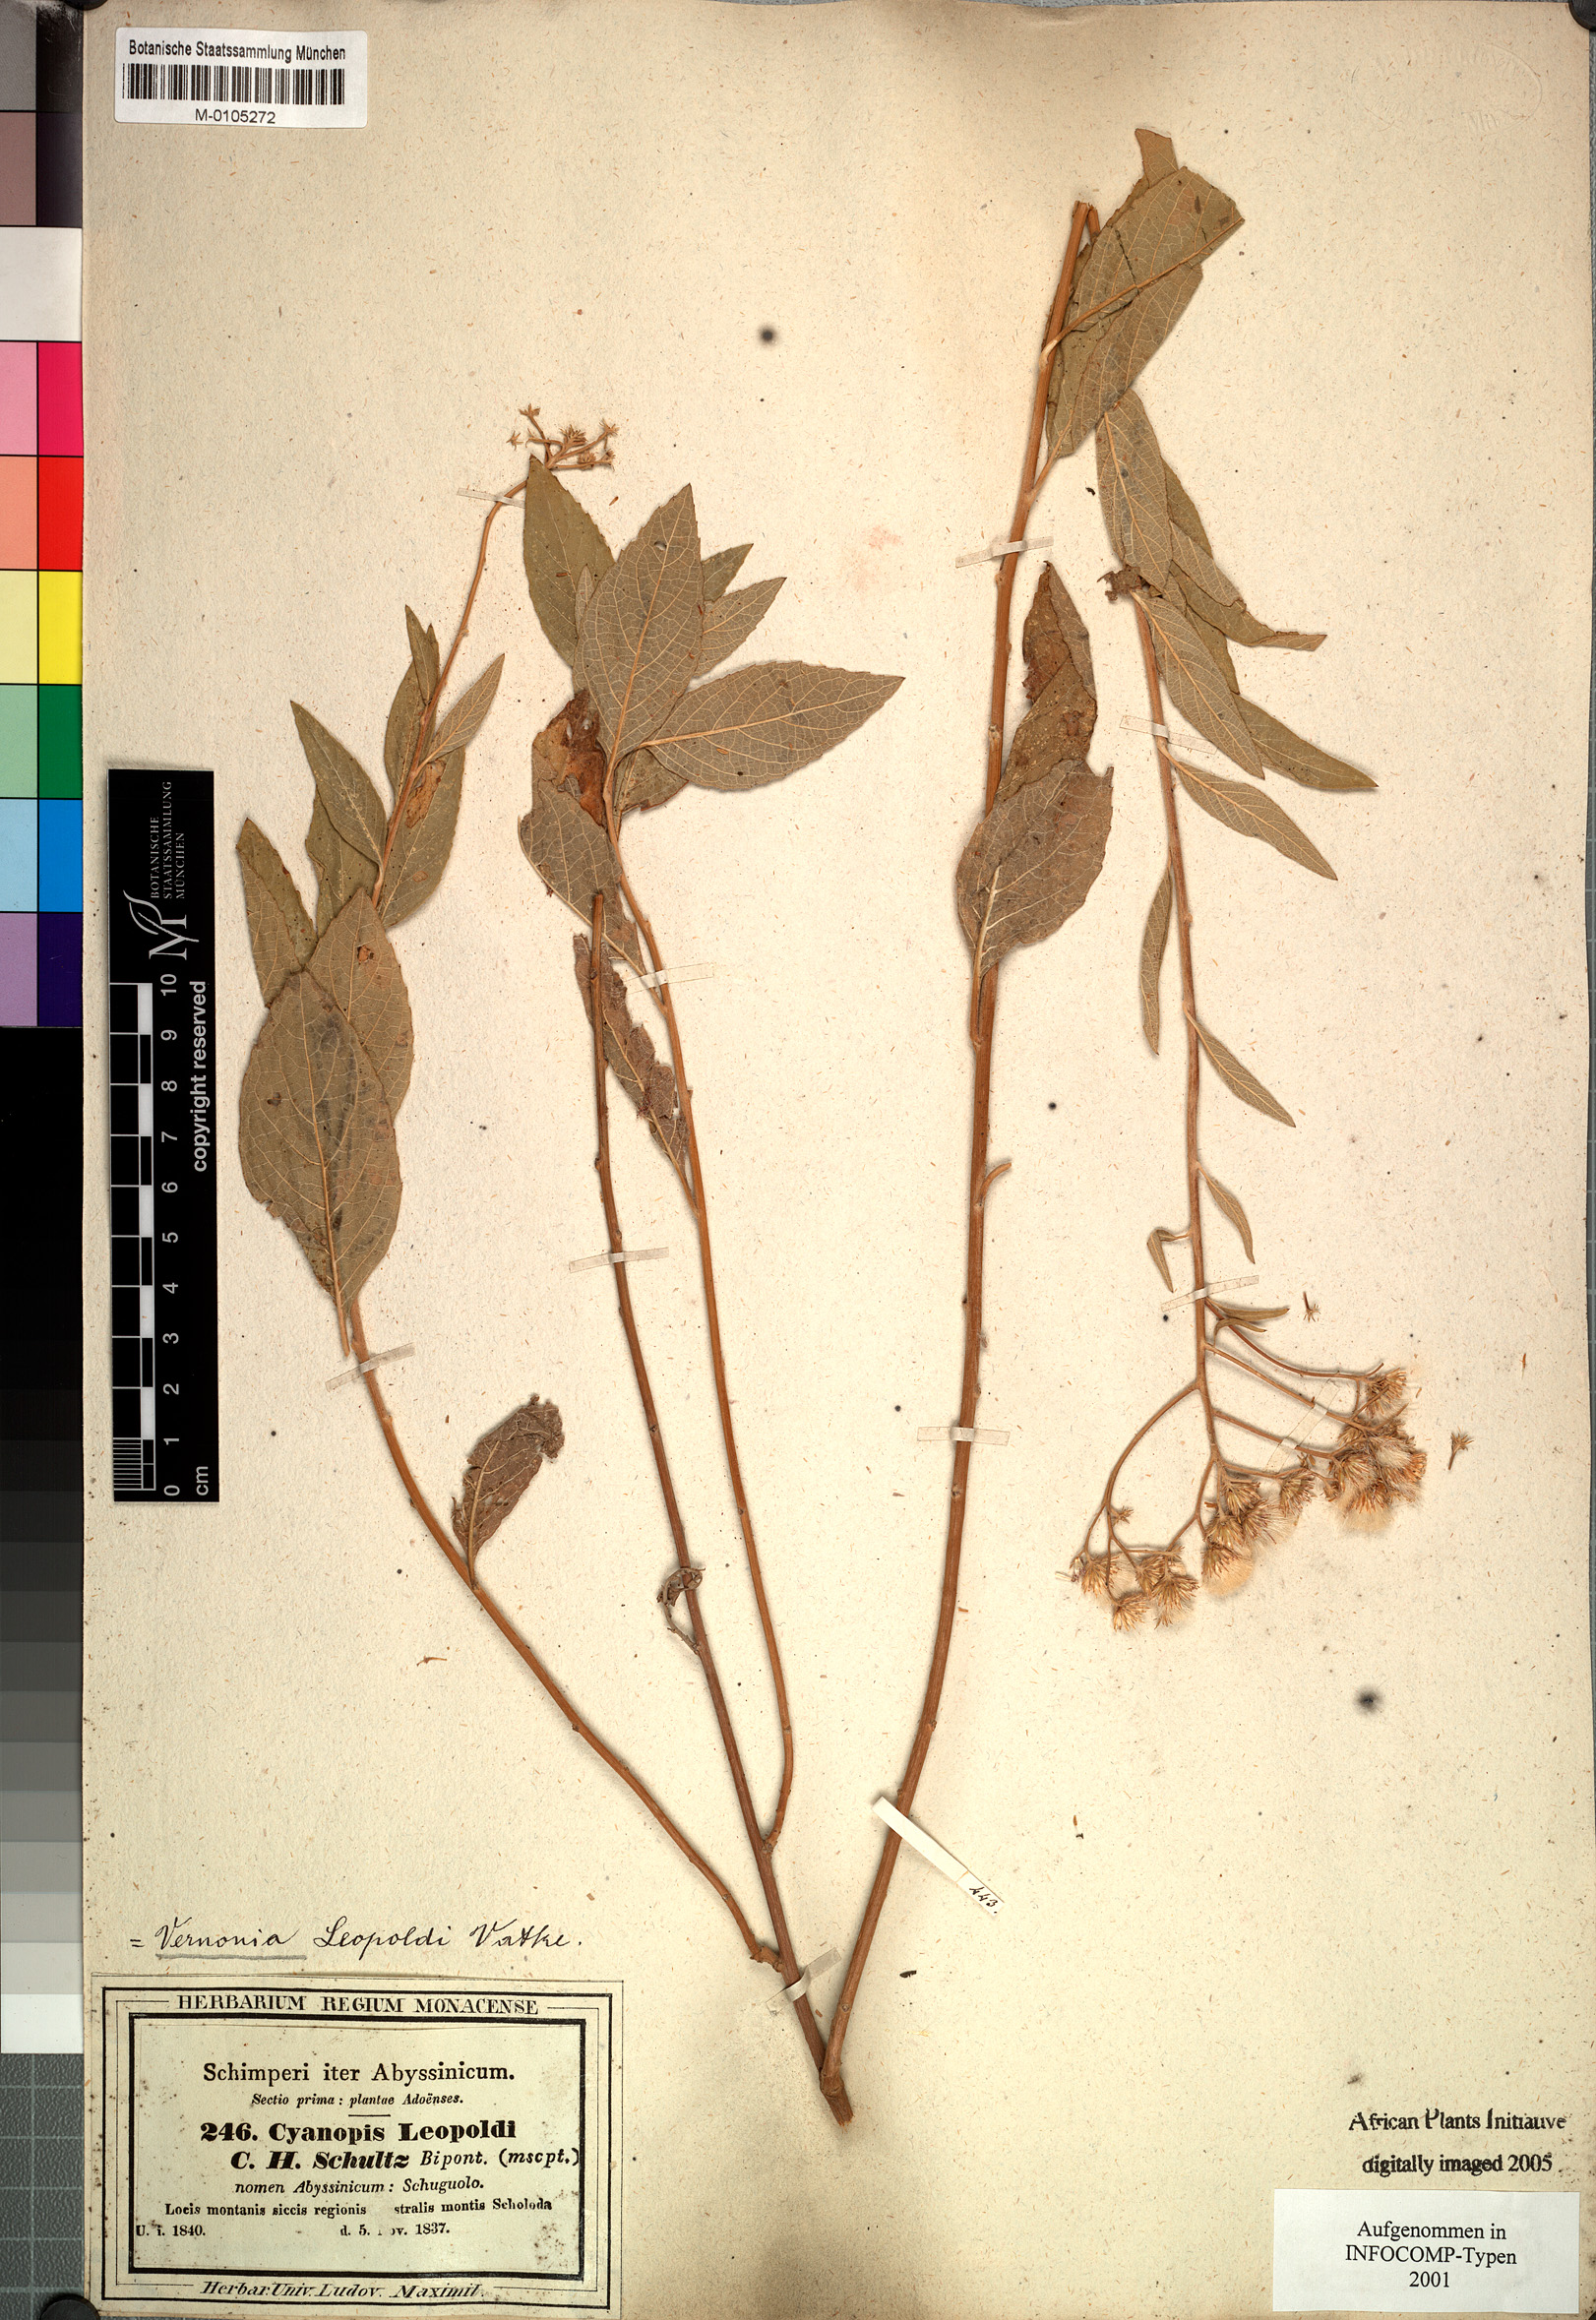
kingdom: Plantae
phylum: Tracheophyta
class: Magnoliopsida
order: Asterales
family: Asteraceae
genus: Orbivestus
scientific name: Orbivestus leopoldii
